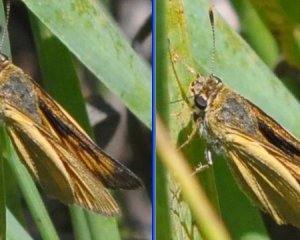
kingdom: Animalia
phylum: Arthropoda
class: Insecta
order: Lepidoptera
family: Hesperiidae
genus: Atrytone
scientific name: Atrytone delaware
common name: Delaware Skipper
